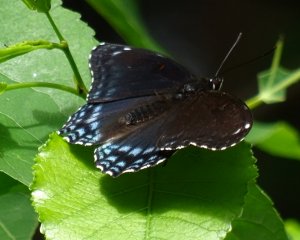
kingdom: Animalia
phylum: Arthropoda
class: Insecta
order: Lepidoptera
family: Nymphalidae
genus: Limenitis
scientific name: Limenitis astyanax
